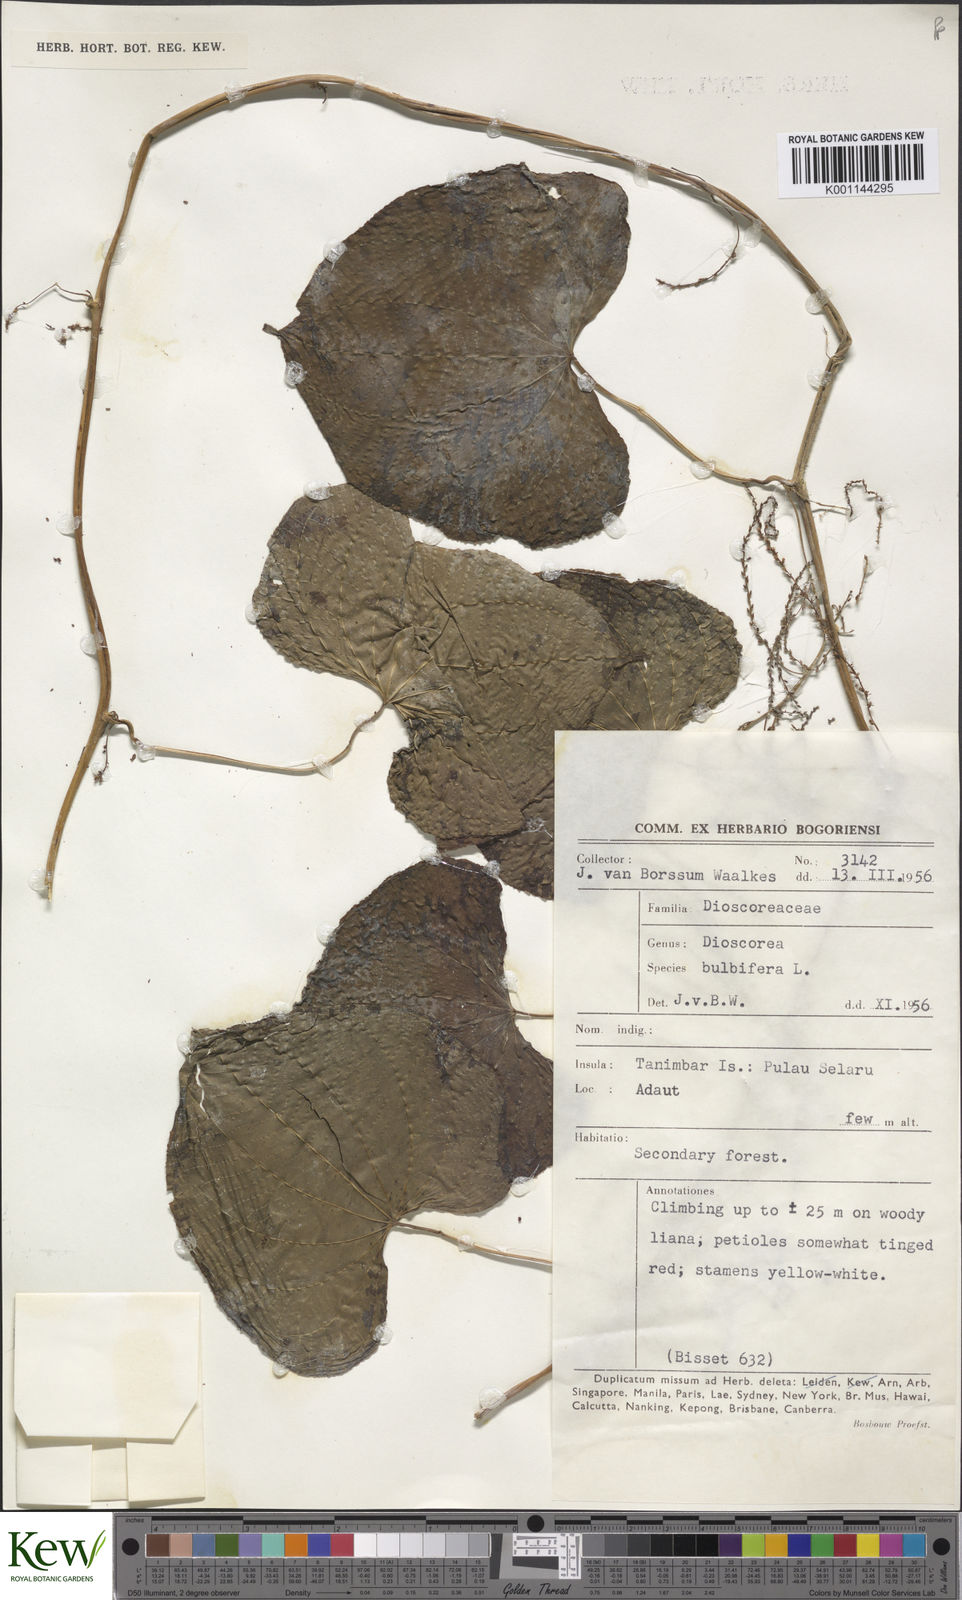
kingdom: Plantae
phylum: Tracheophyta
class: Liliopsida
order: Dioscoreales
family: Dioscoreaceae
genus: Dioscorea
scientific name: Dioscorea bulbifera
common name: Air yam
